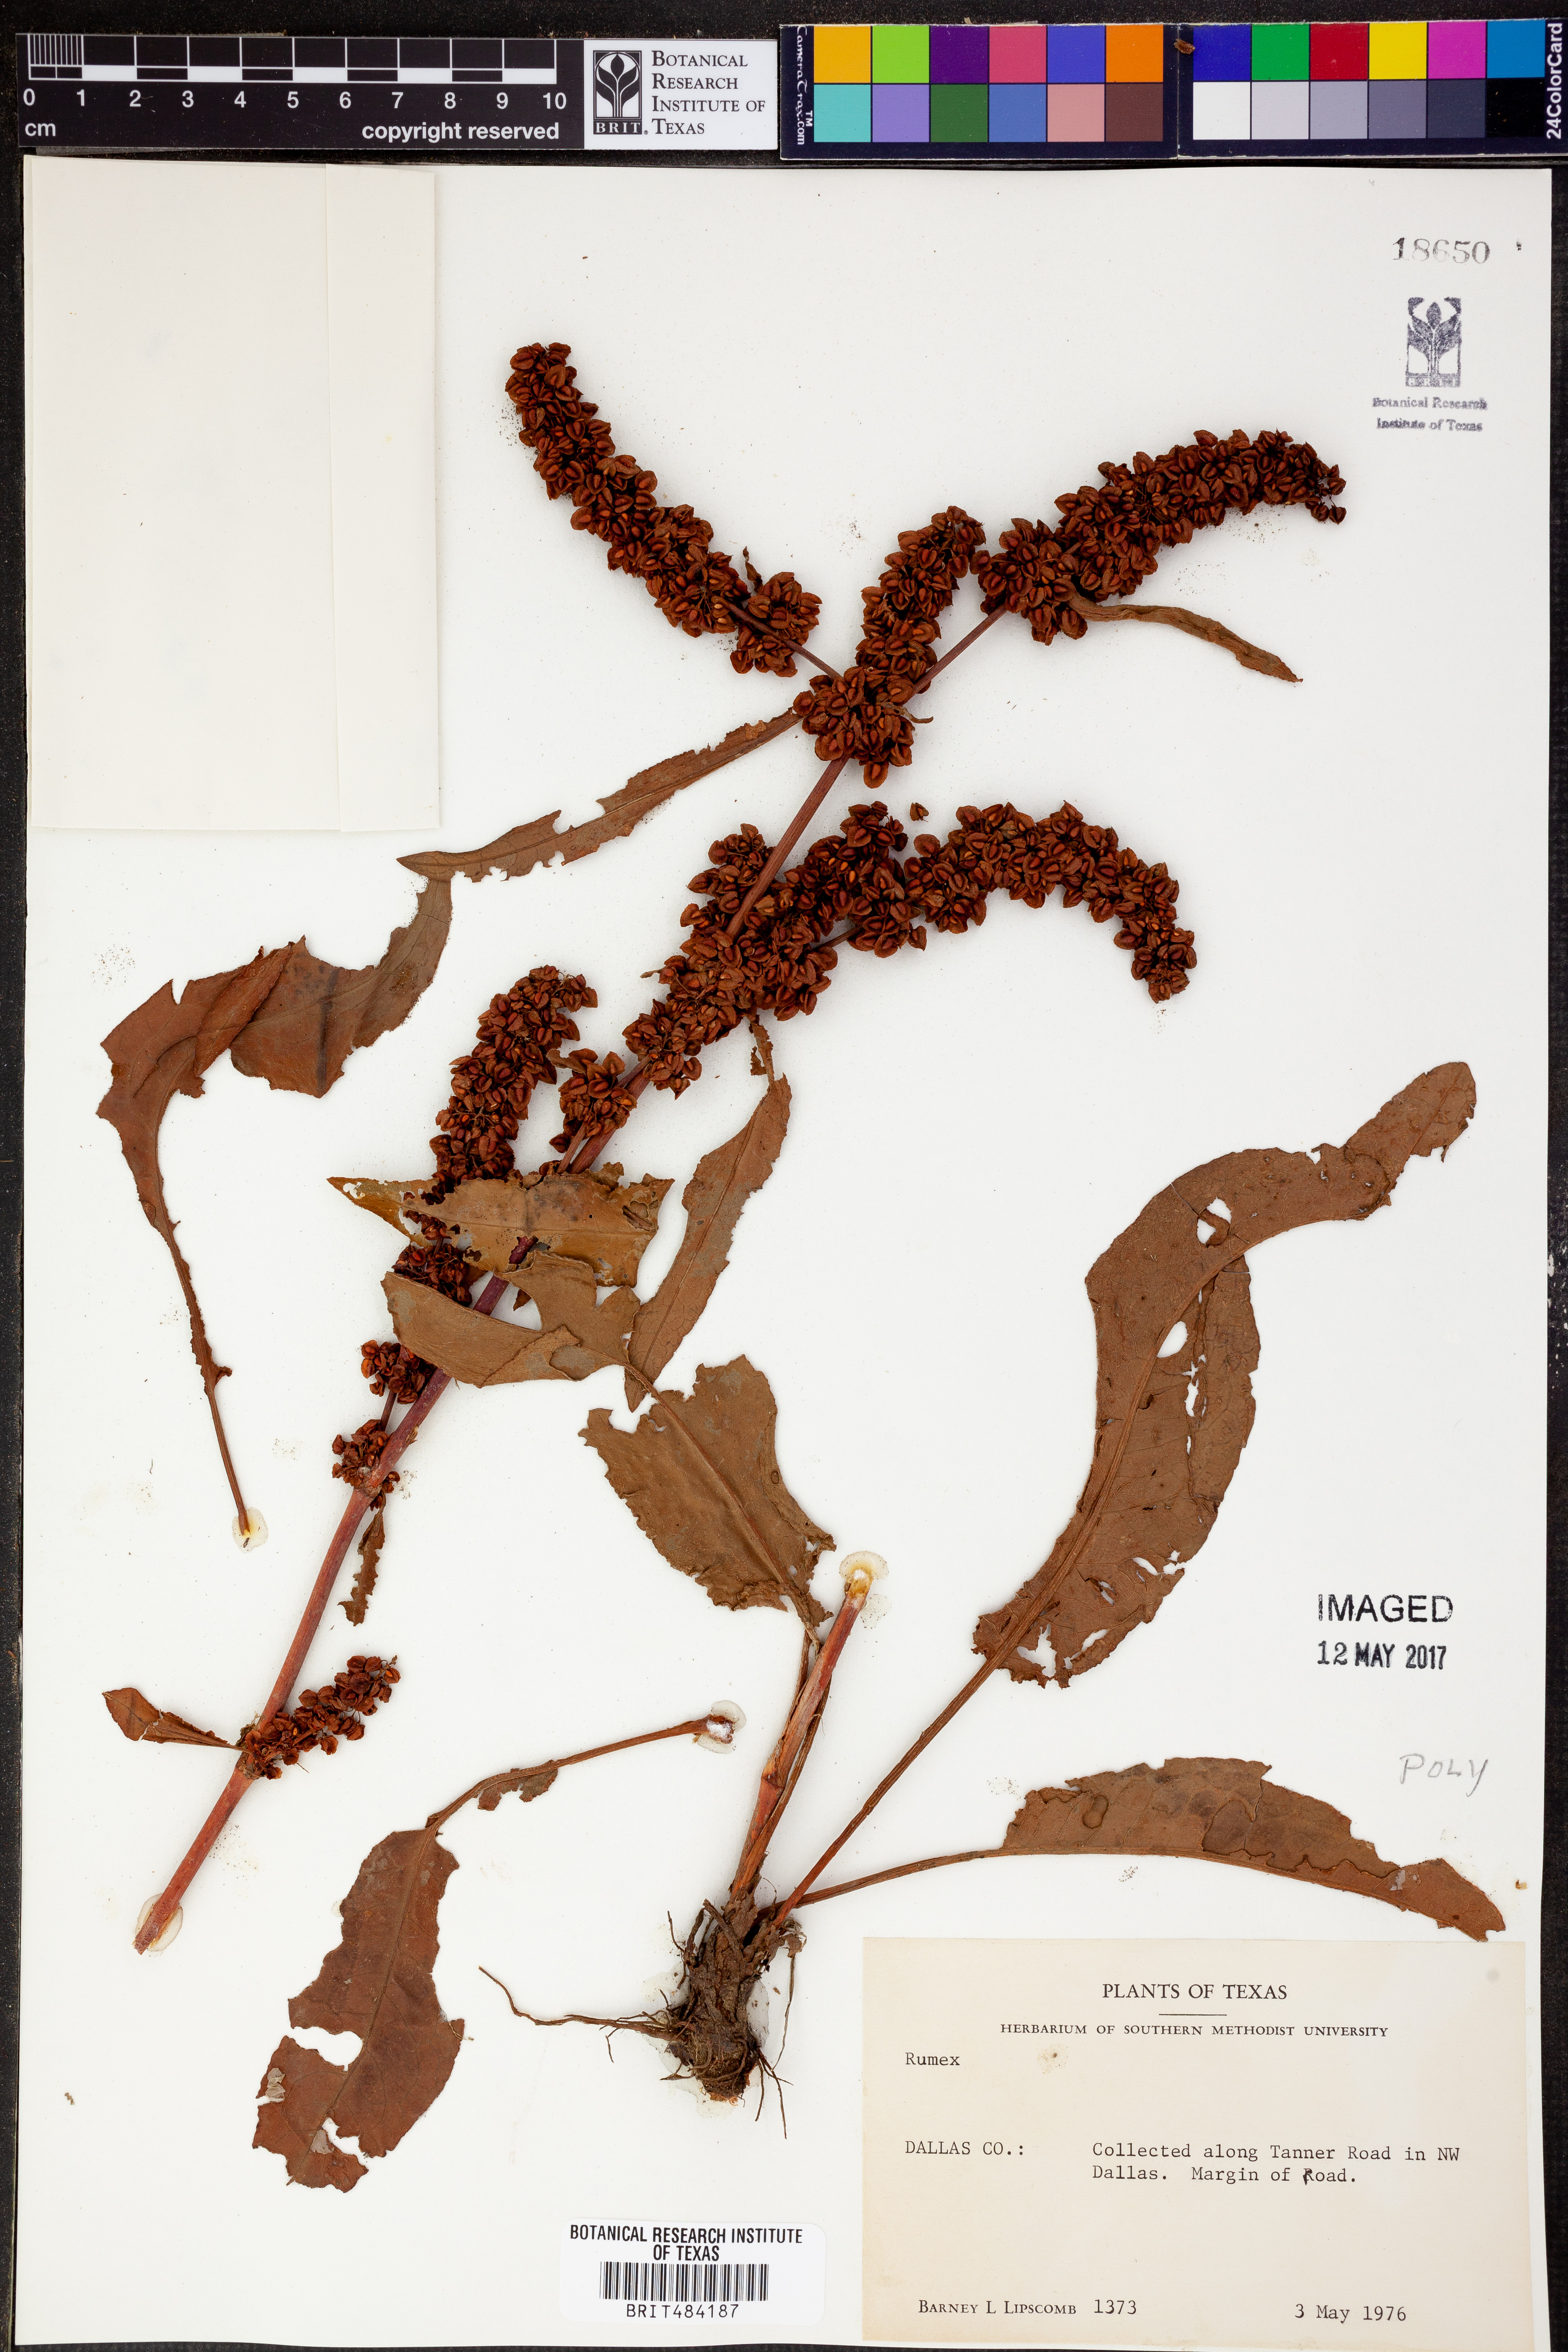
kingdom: Plantae
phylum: Tracheophyta
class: Magnoliopsida
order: Caryophyllales
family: Polygonaceae
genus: Rumex
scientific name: Rumex
